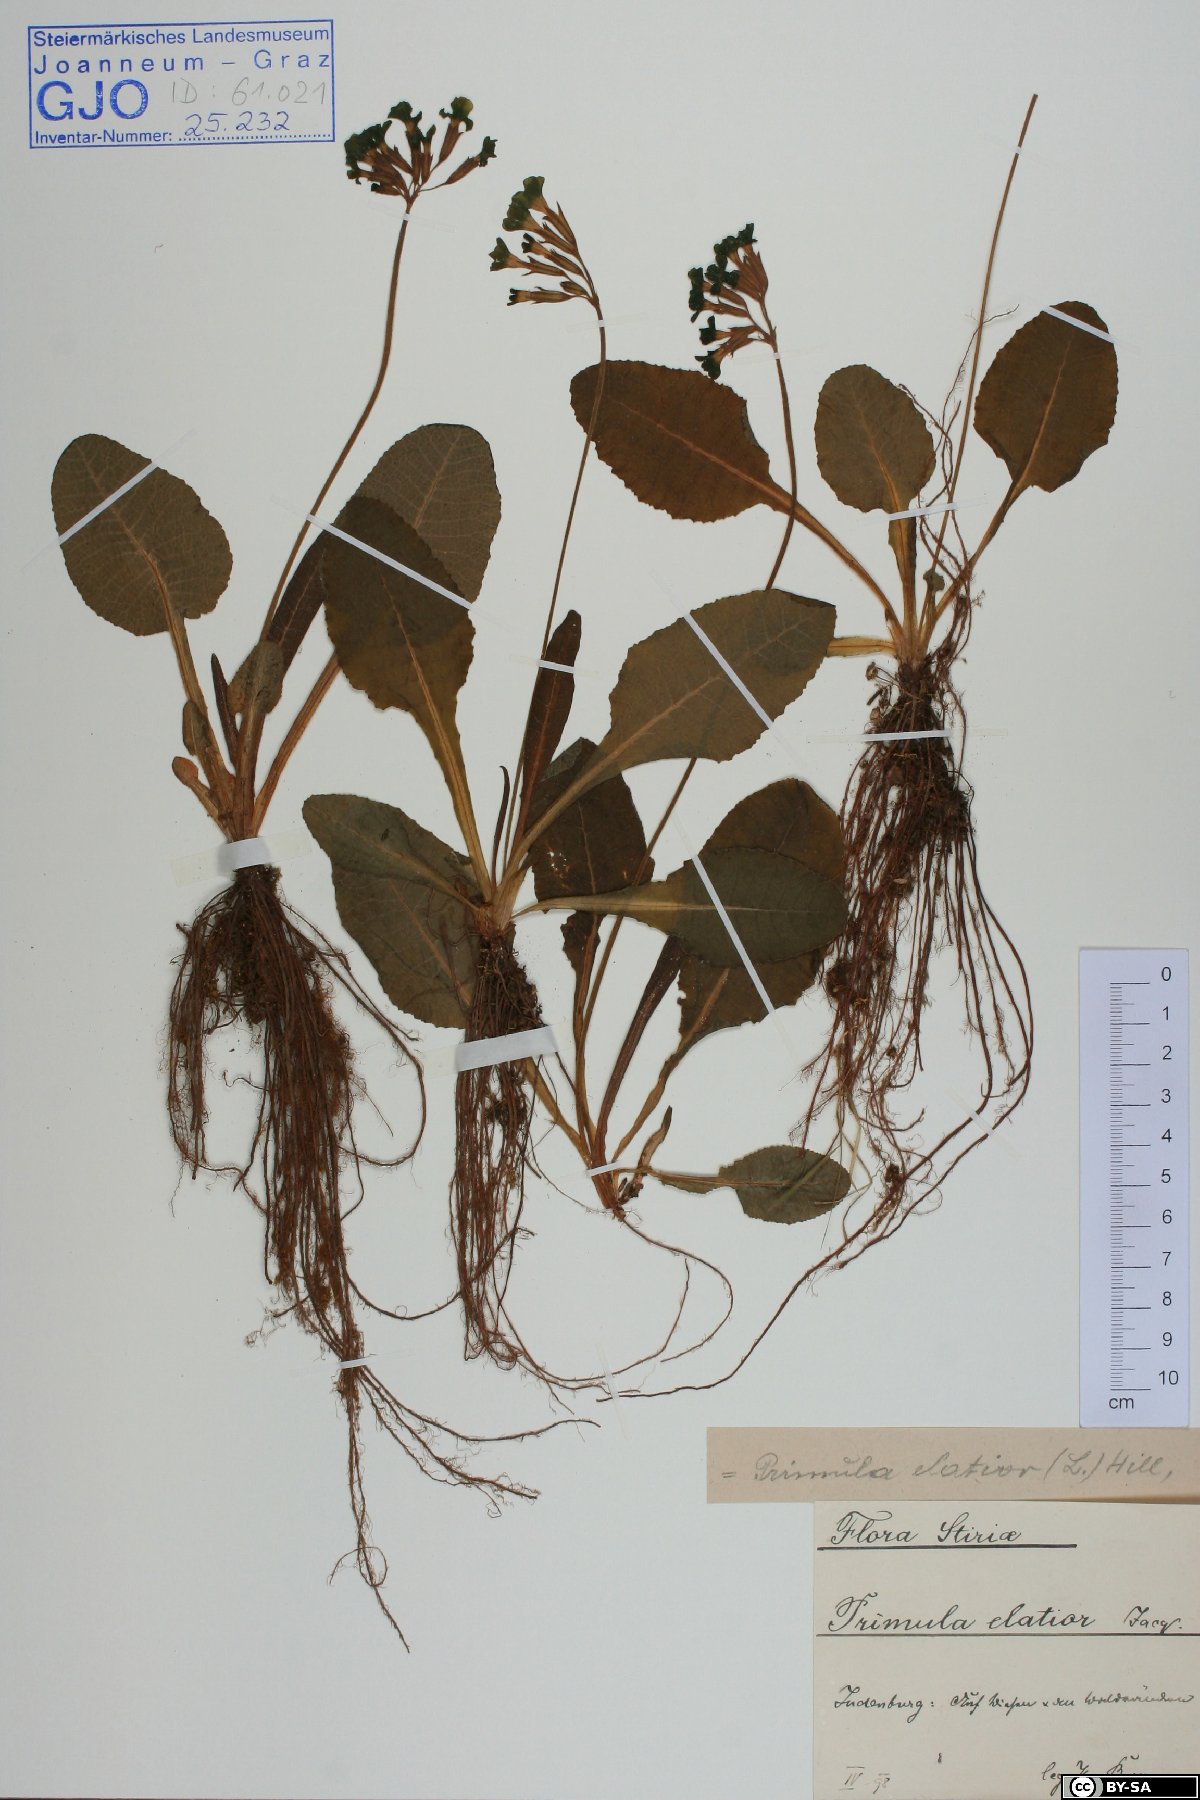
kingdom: Plantae
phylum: Tracheophyta
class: Magnoliopsida
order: Ericales
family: Primulaceae
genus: Primula
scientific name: Primula elatior
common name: Oxlip
